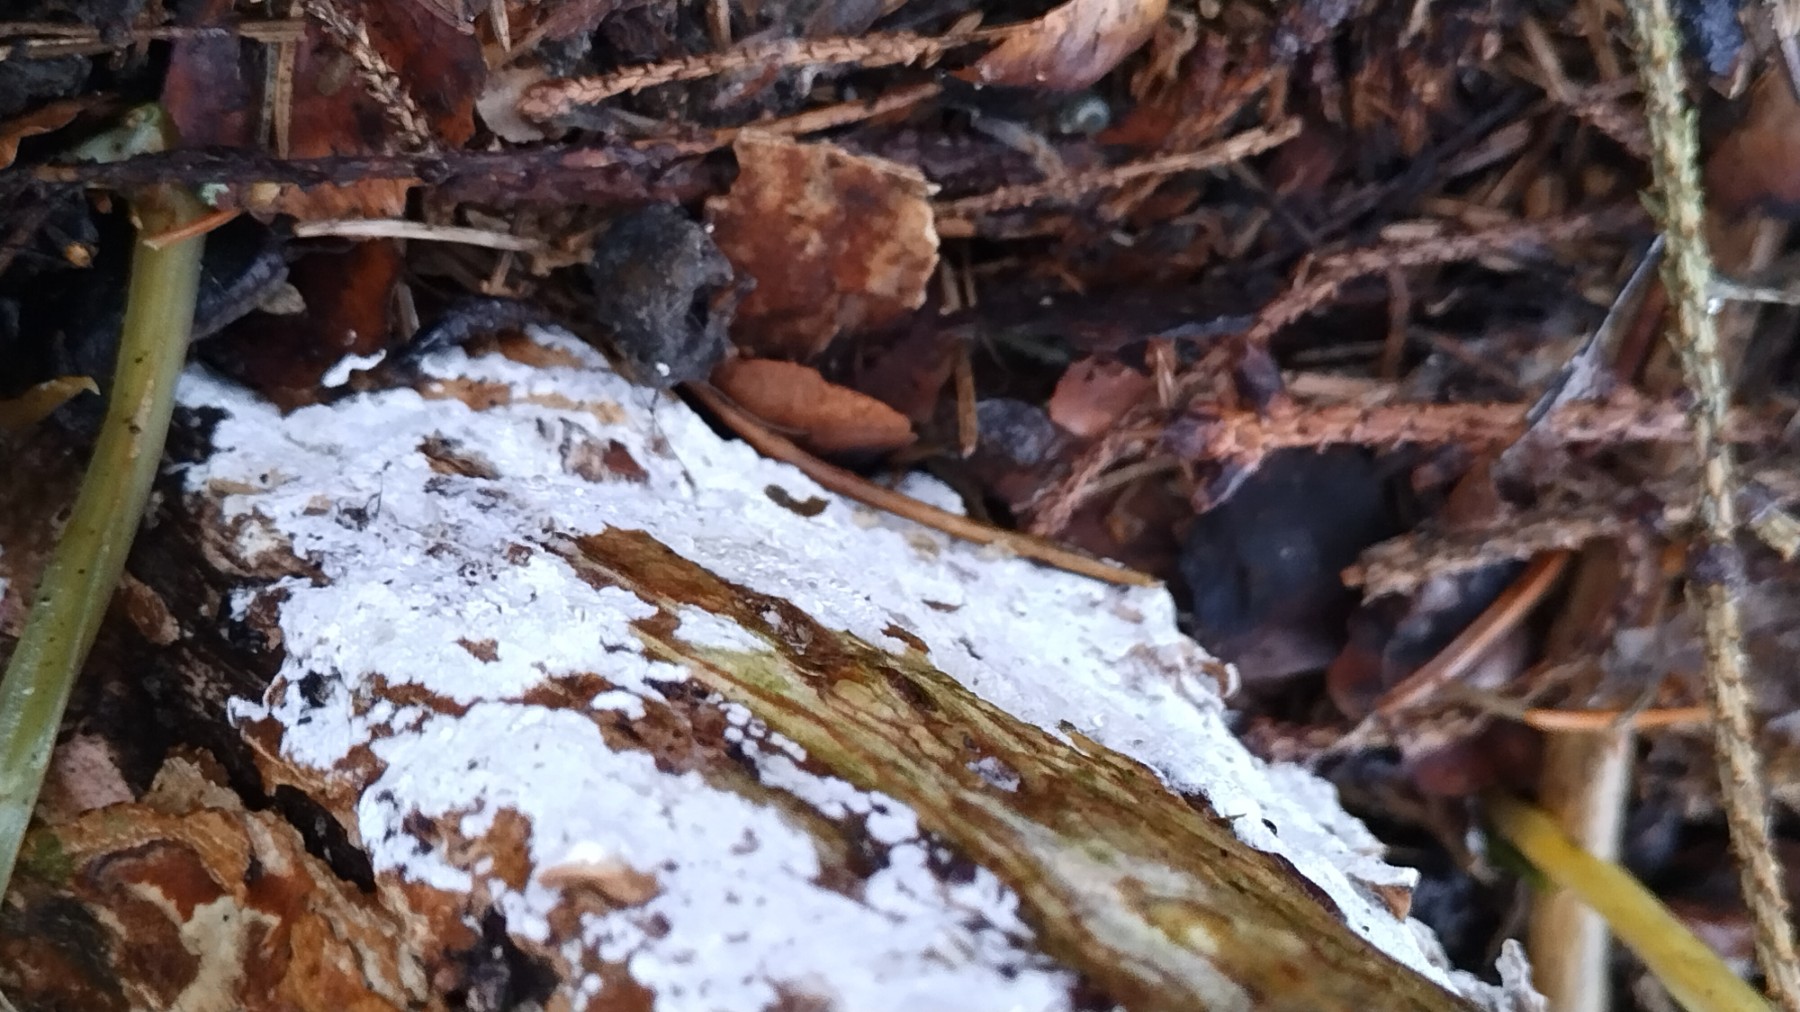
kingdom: Fungi
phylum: Basidiomycota
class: Agaricomycetes
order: Corticiales
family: Corticiaceae
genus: Lyomyces
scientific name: Lyomyces sambuci
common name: almindelig hyldehinde
